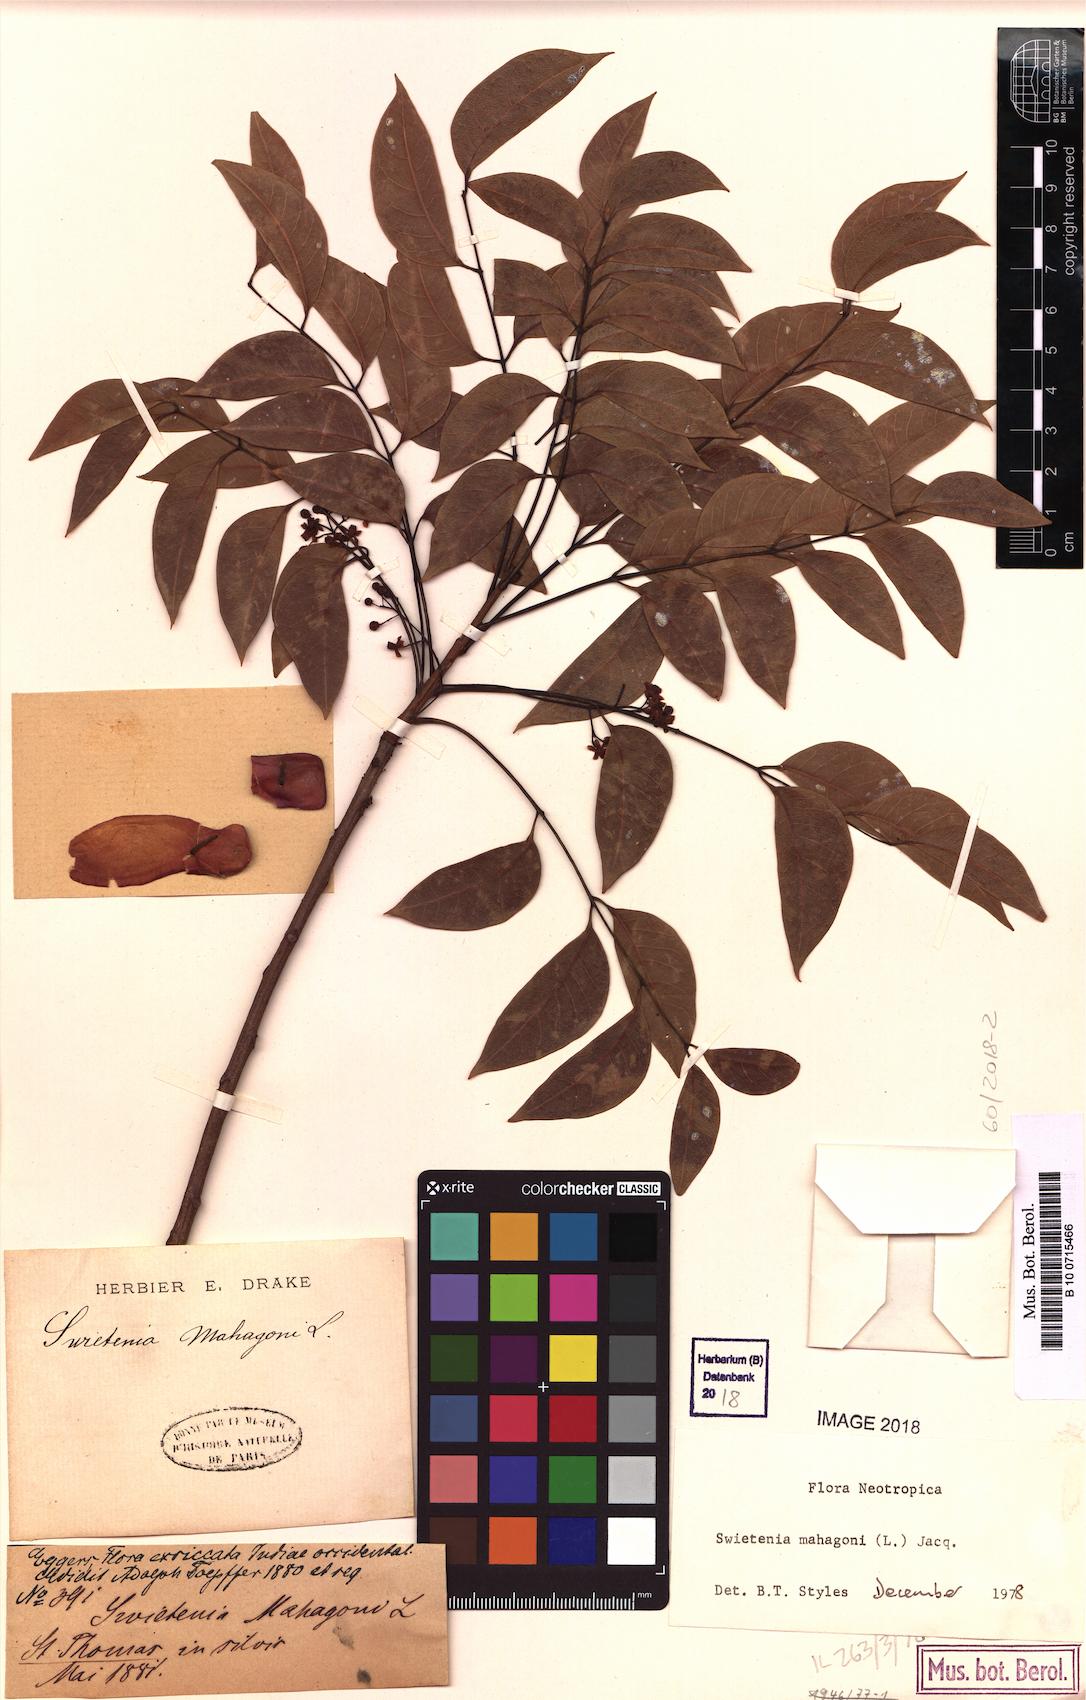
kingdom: Plantae
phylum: Tracheophyta
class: Magnoliopsida
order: Sapindales
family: Meliaceae
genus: Swietenia
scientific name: Swietenia mahagoni
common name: West indian mahogany
